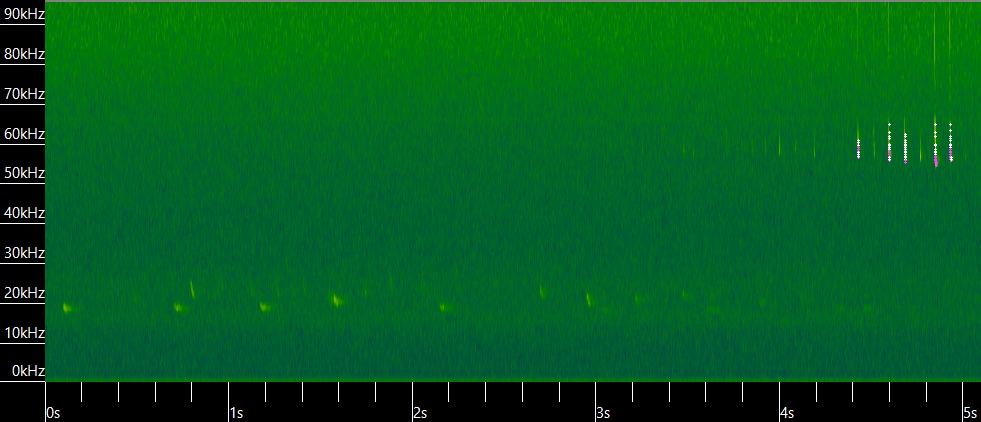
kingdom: Animalia
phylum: Chordata
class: Mammalia
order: Chiroptera
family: Vespertilionidae
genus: Pipistrellus
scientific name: Pipistrellus pygmaeus
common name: Dværgflagermus
